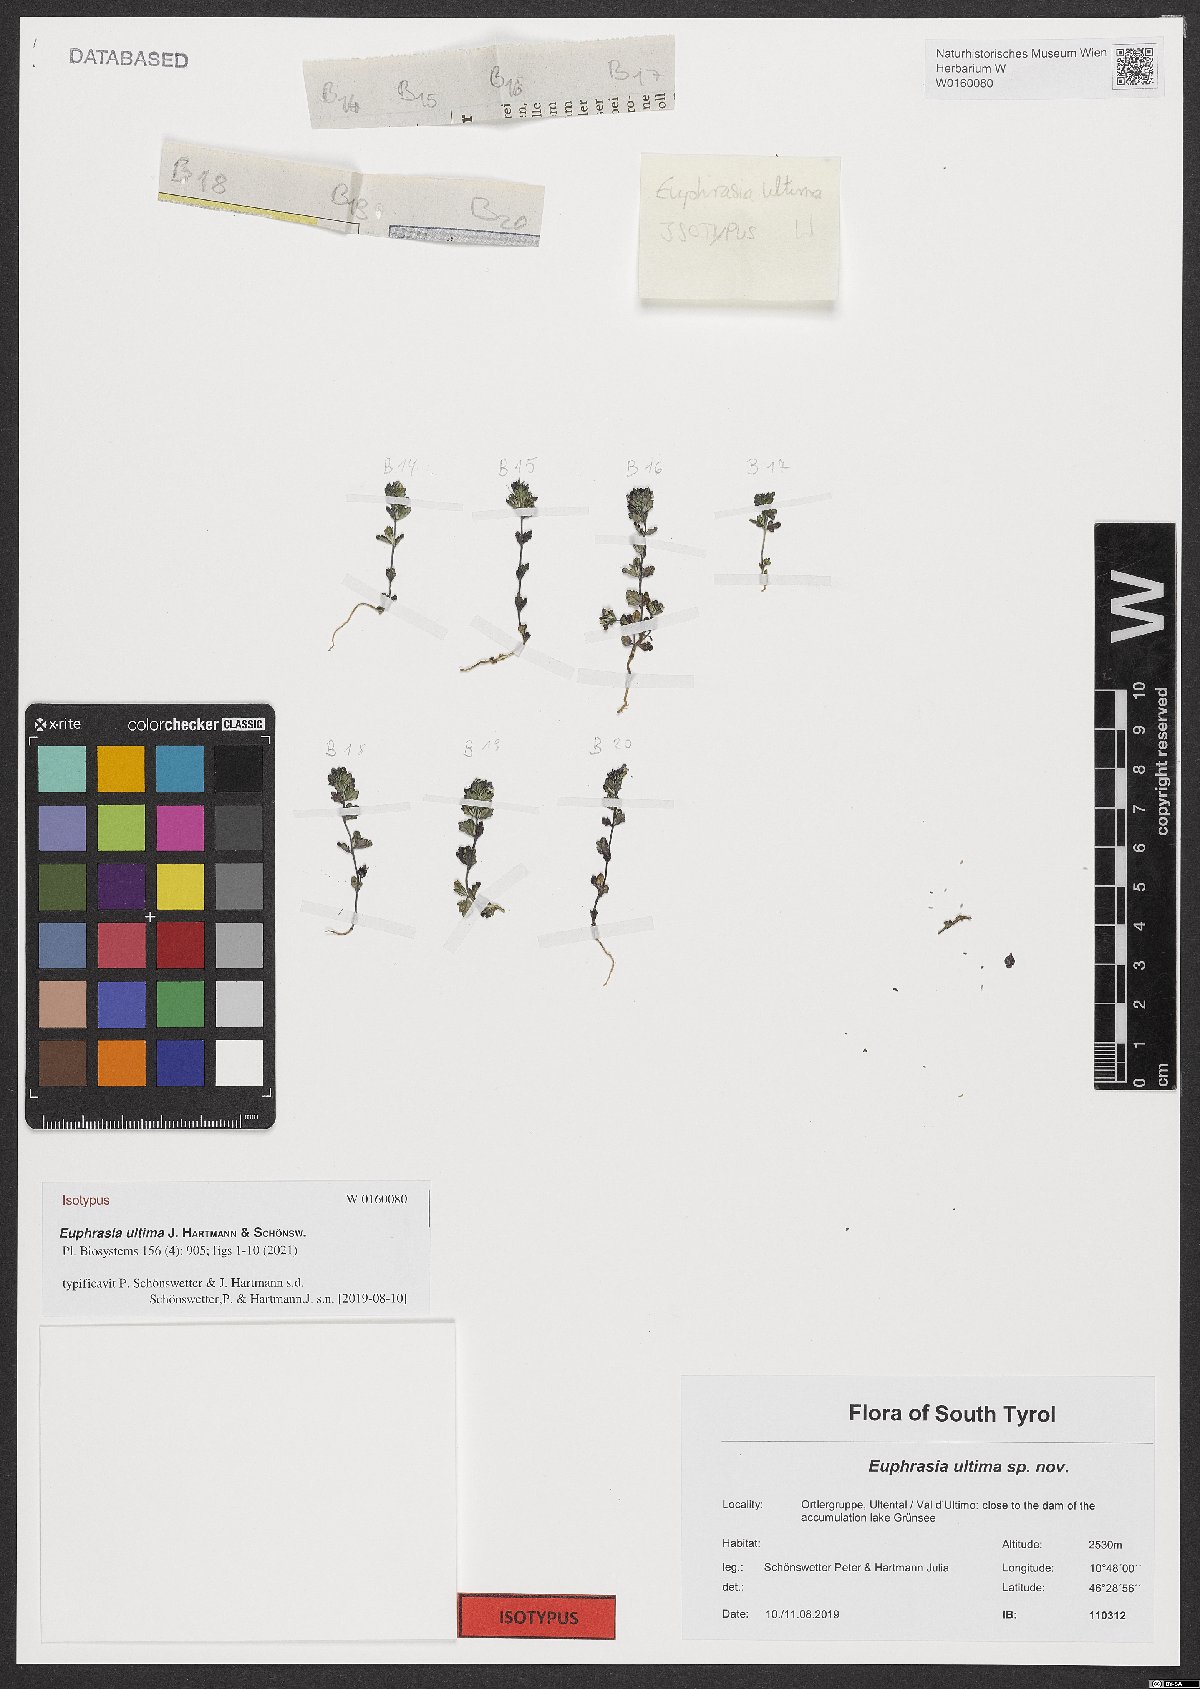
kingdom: Plantae
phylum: Tracheophyta
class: Magnoliopsida
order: Lamiales
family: Orobanchaceae
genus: Euphrasia
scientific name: Euphrasia ultima
